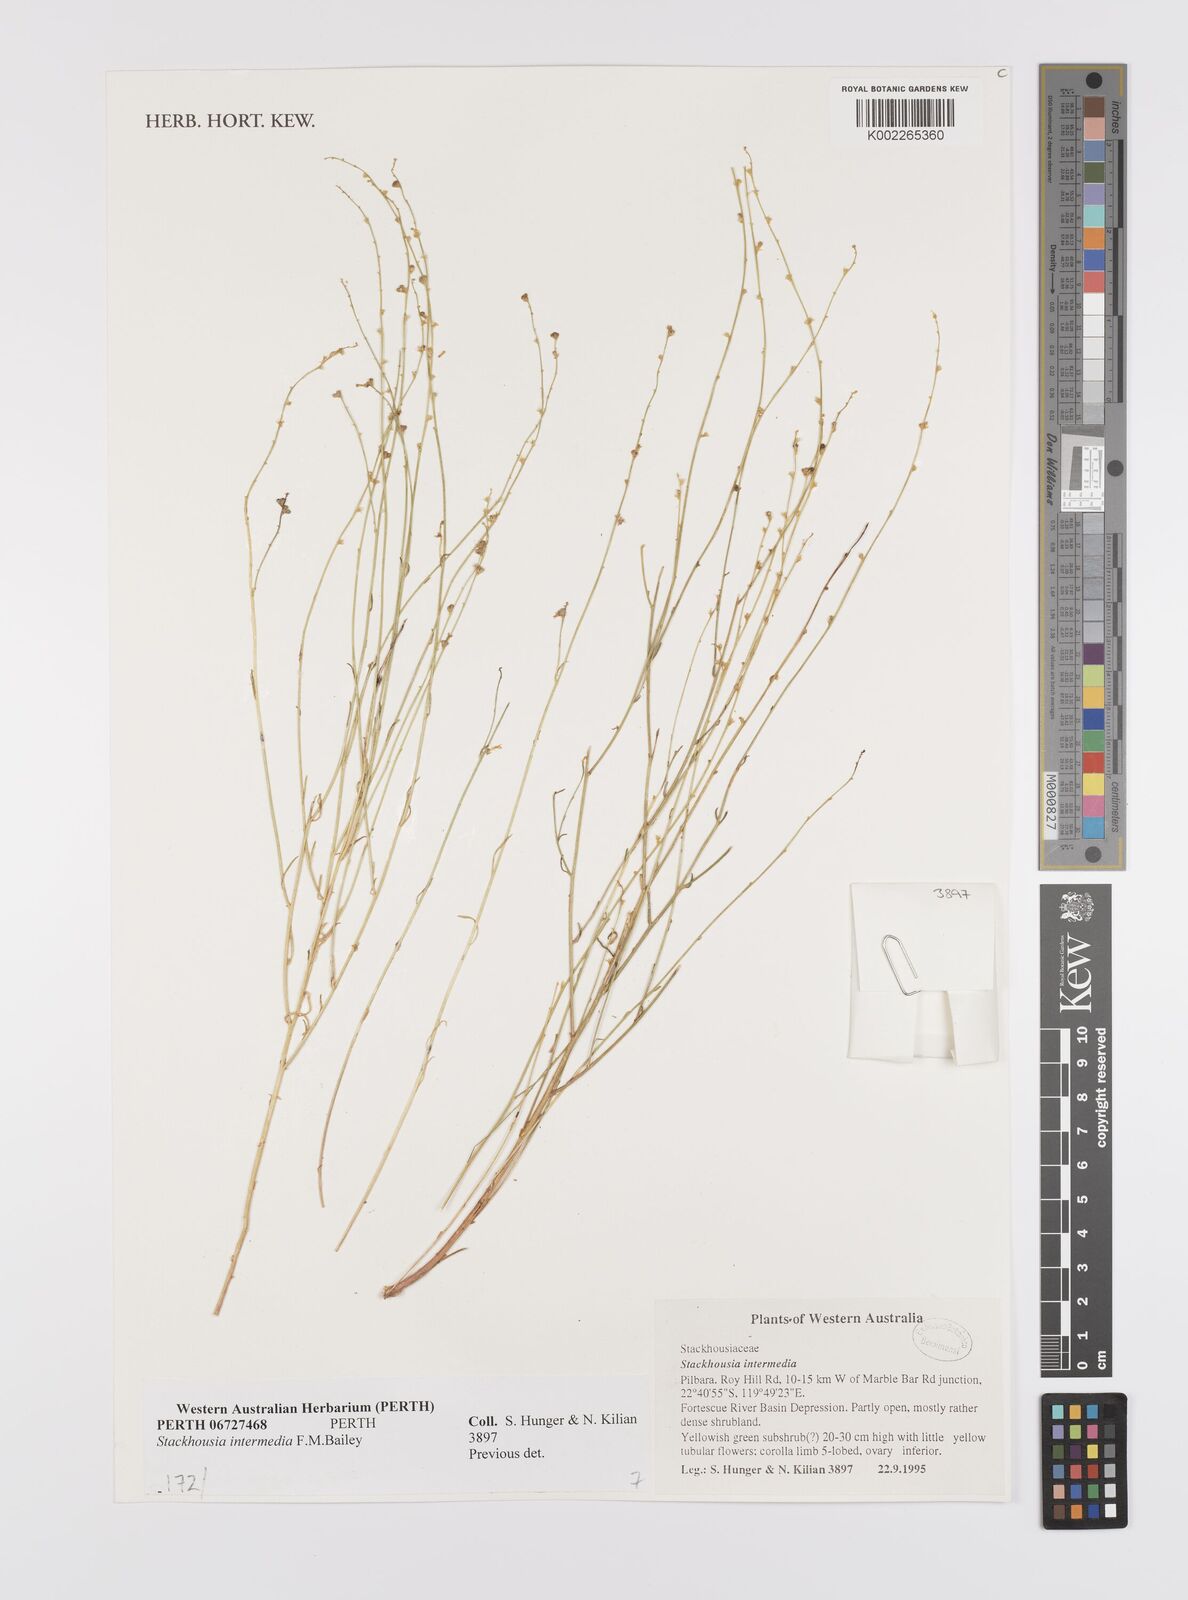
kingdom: Plantae
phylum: Tracheophyta
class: Magnoliopsida
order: Celastrales
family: Celastraceae
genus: Stackhousia
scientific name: Stackhousia intermedia
